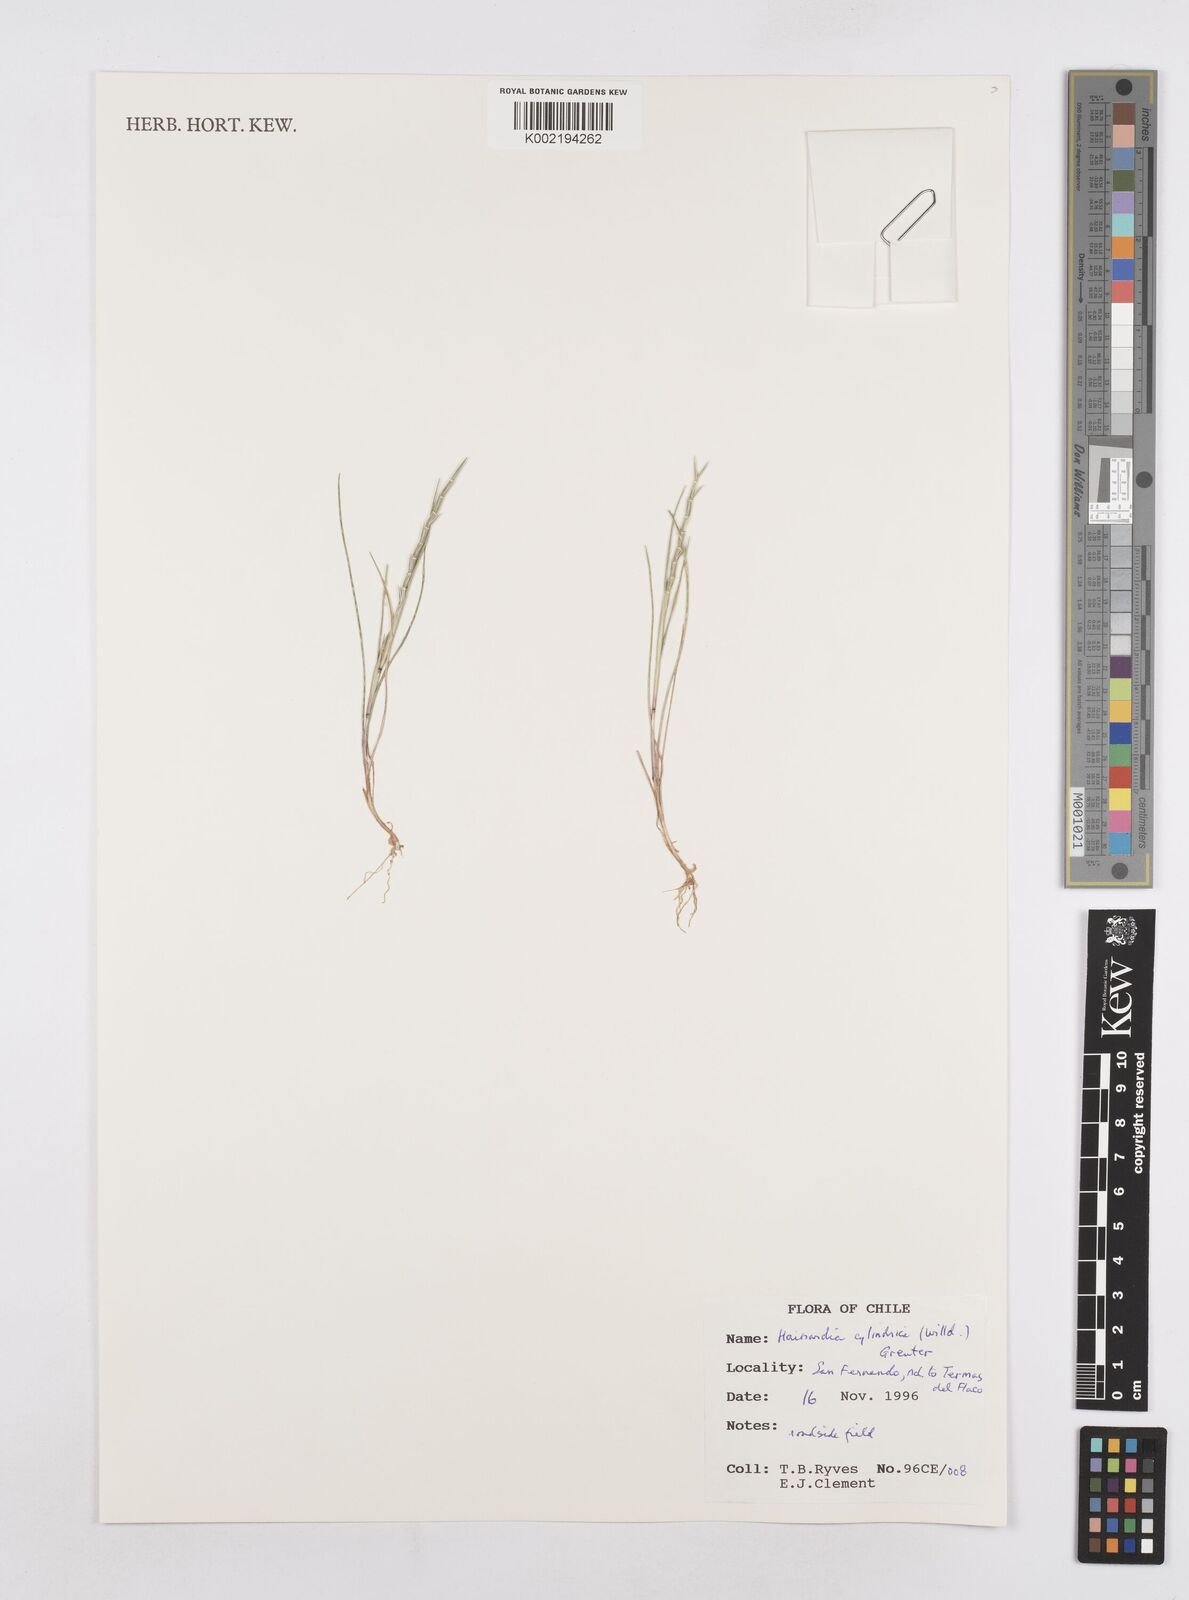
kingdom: Plantae
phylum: Tracheophyta
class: Liliopsida
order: Poales
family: Poaceae
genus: Parapholis
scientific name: Parapholis cylindrica
